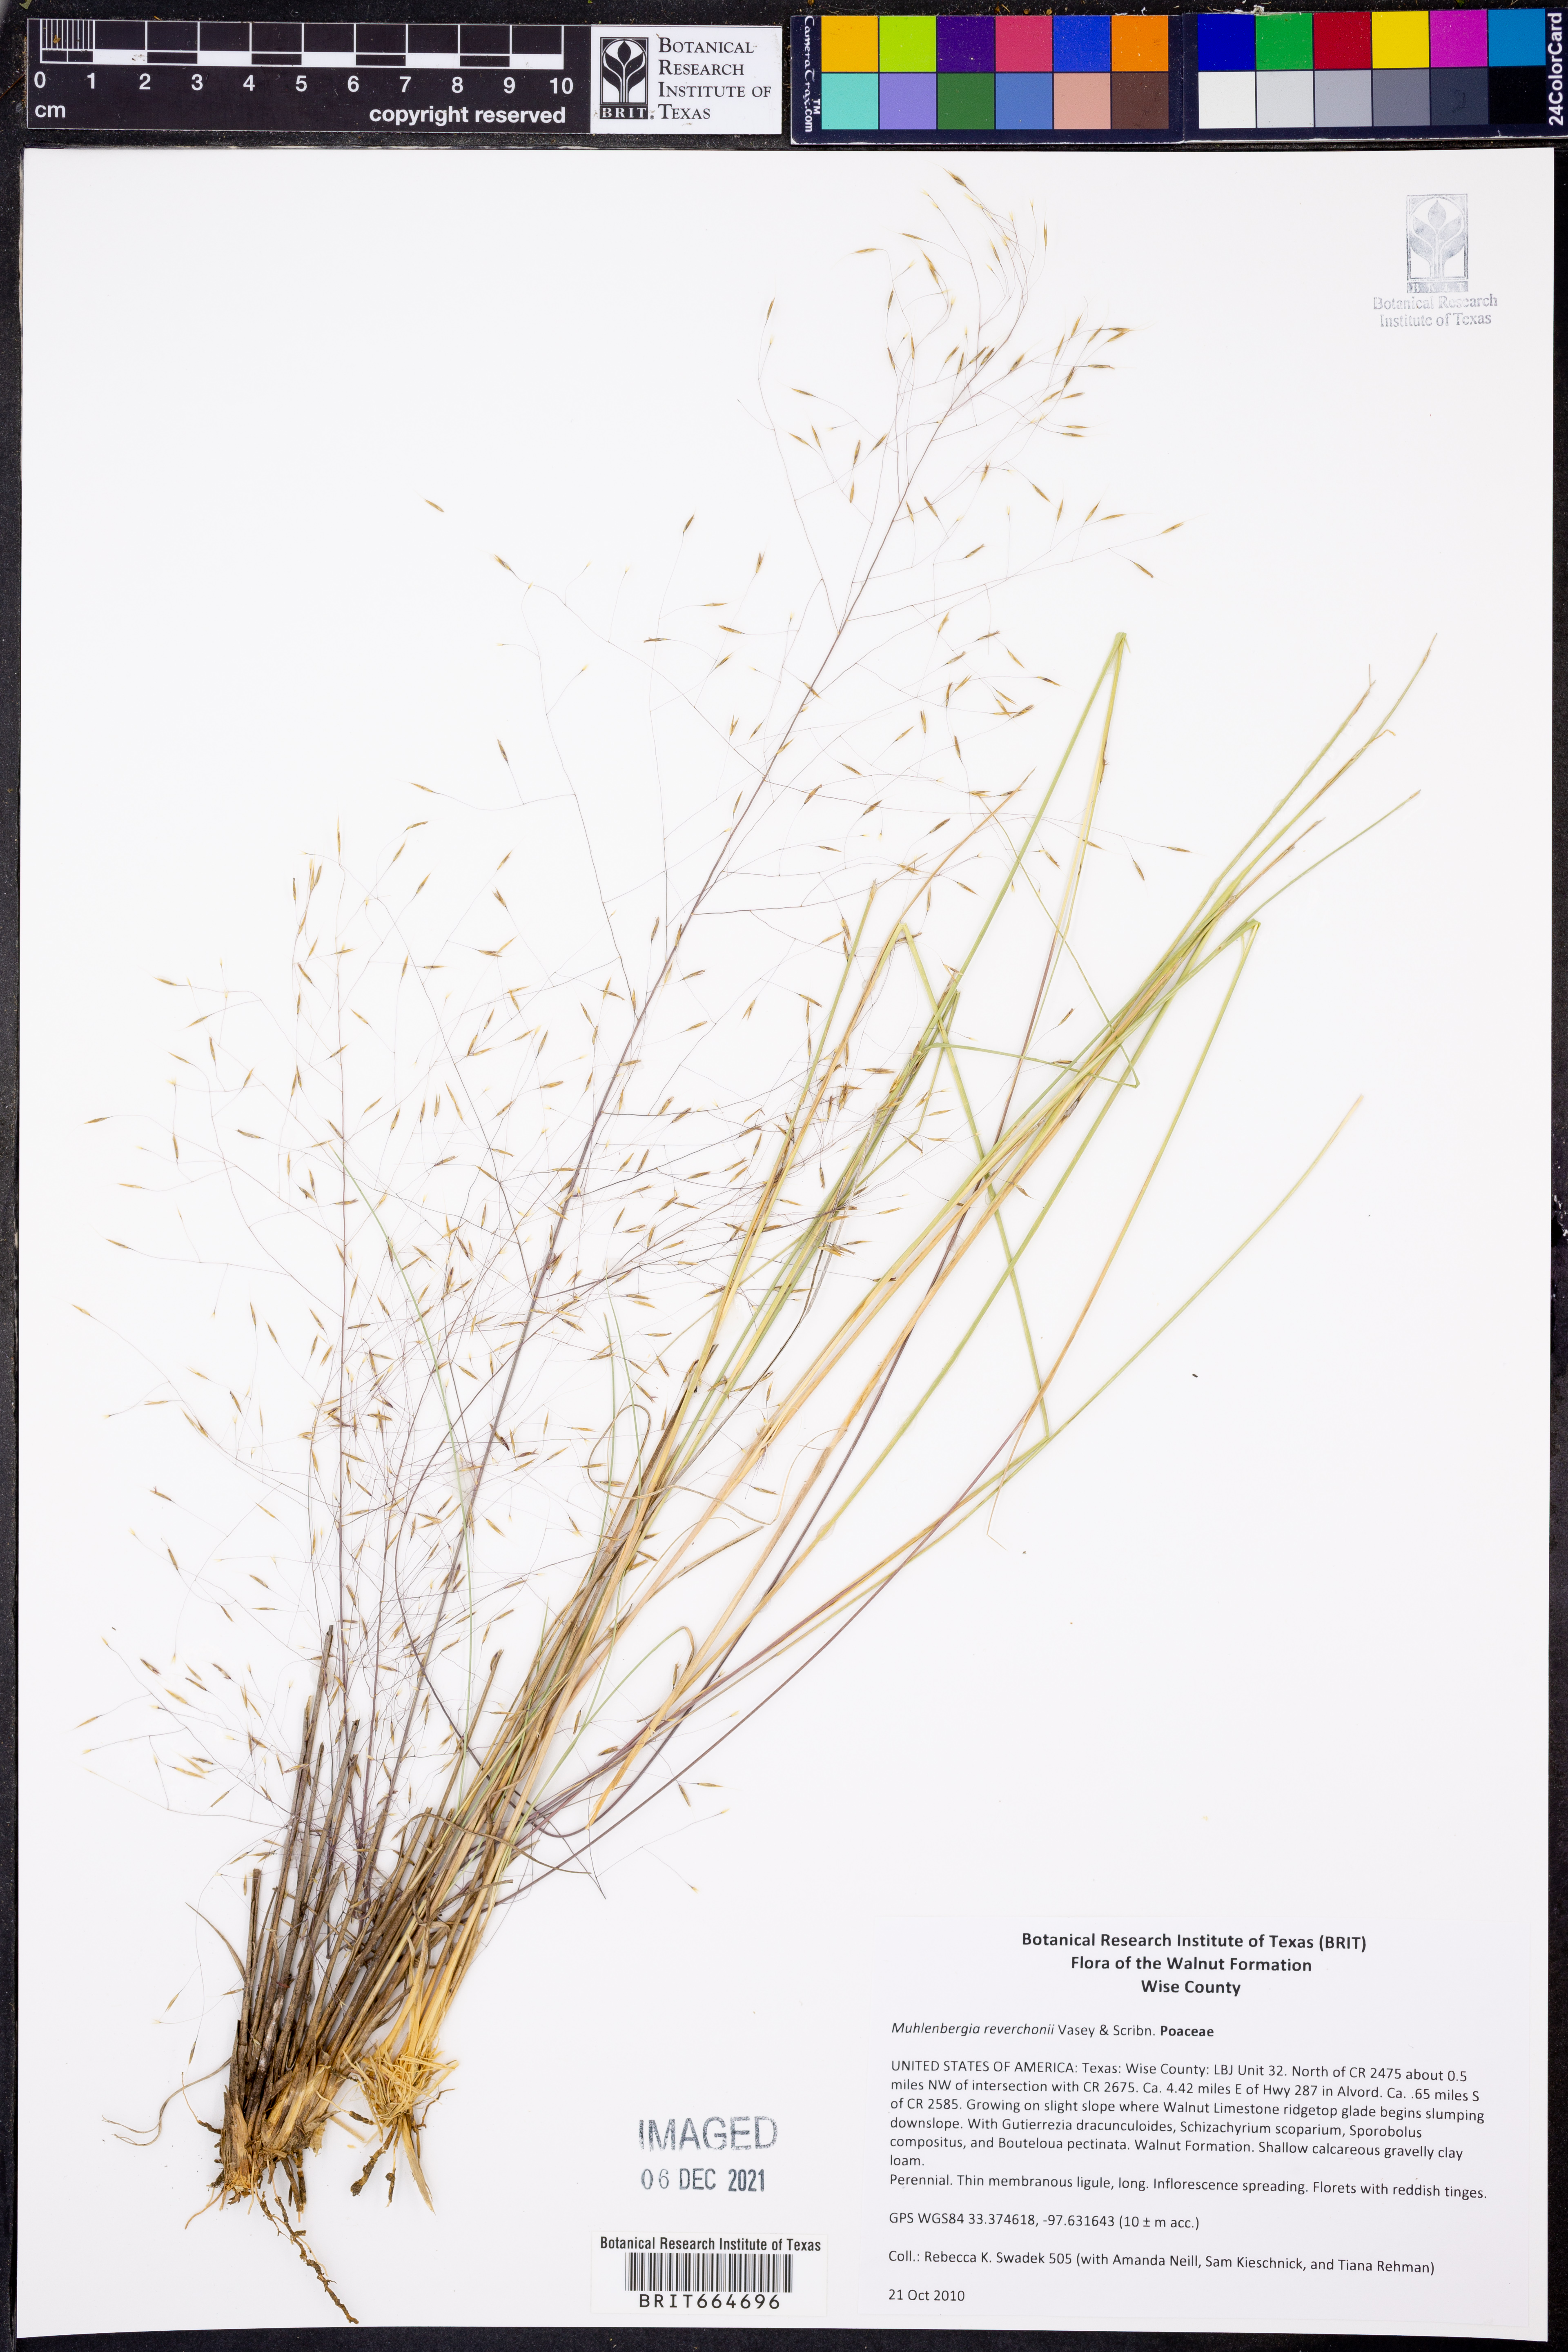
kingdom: Plantae
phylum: Tracheophyta
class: Liliopsida
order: Poales
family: Poaceae
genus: Muhlenbergia
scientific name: Muhlenbergia reverchonii
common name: Seep muhly
